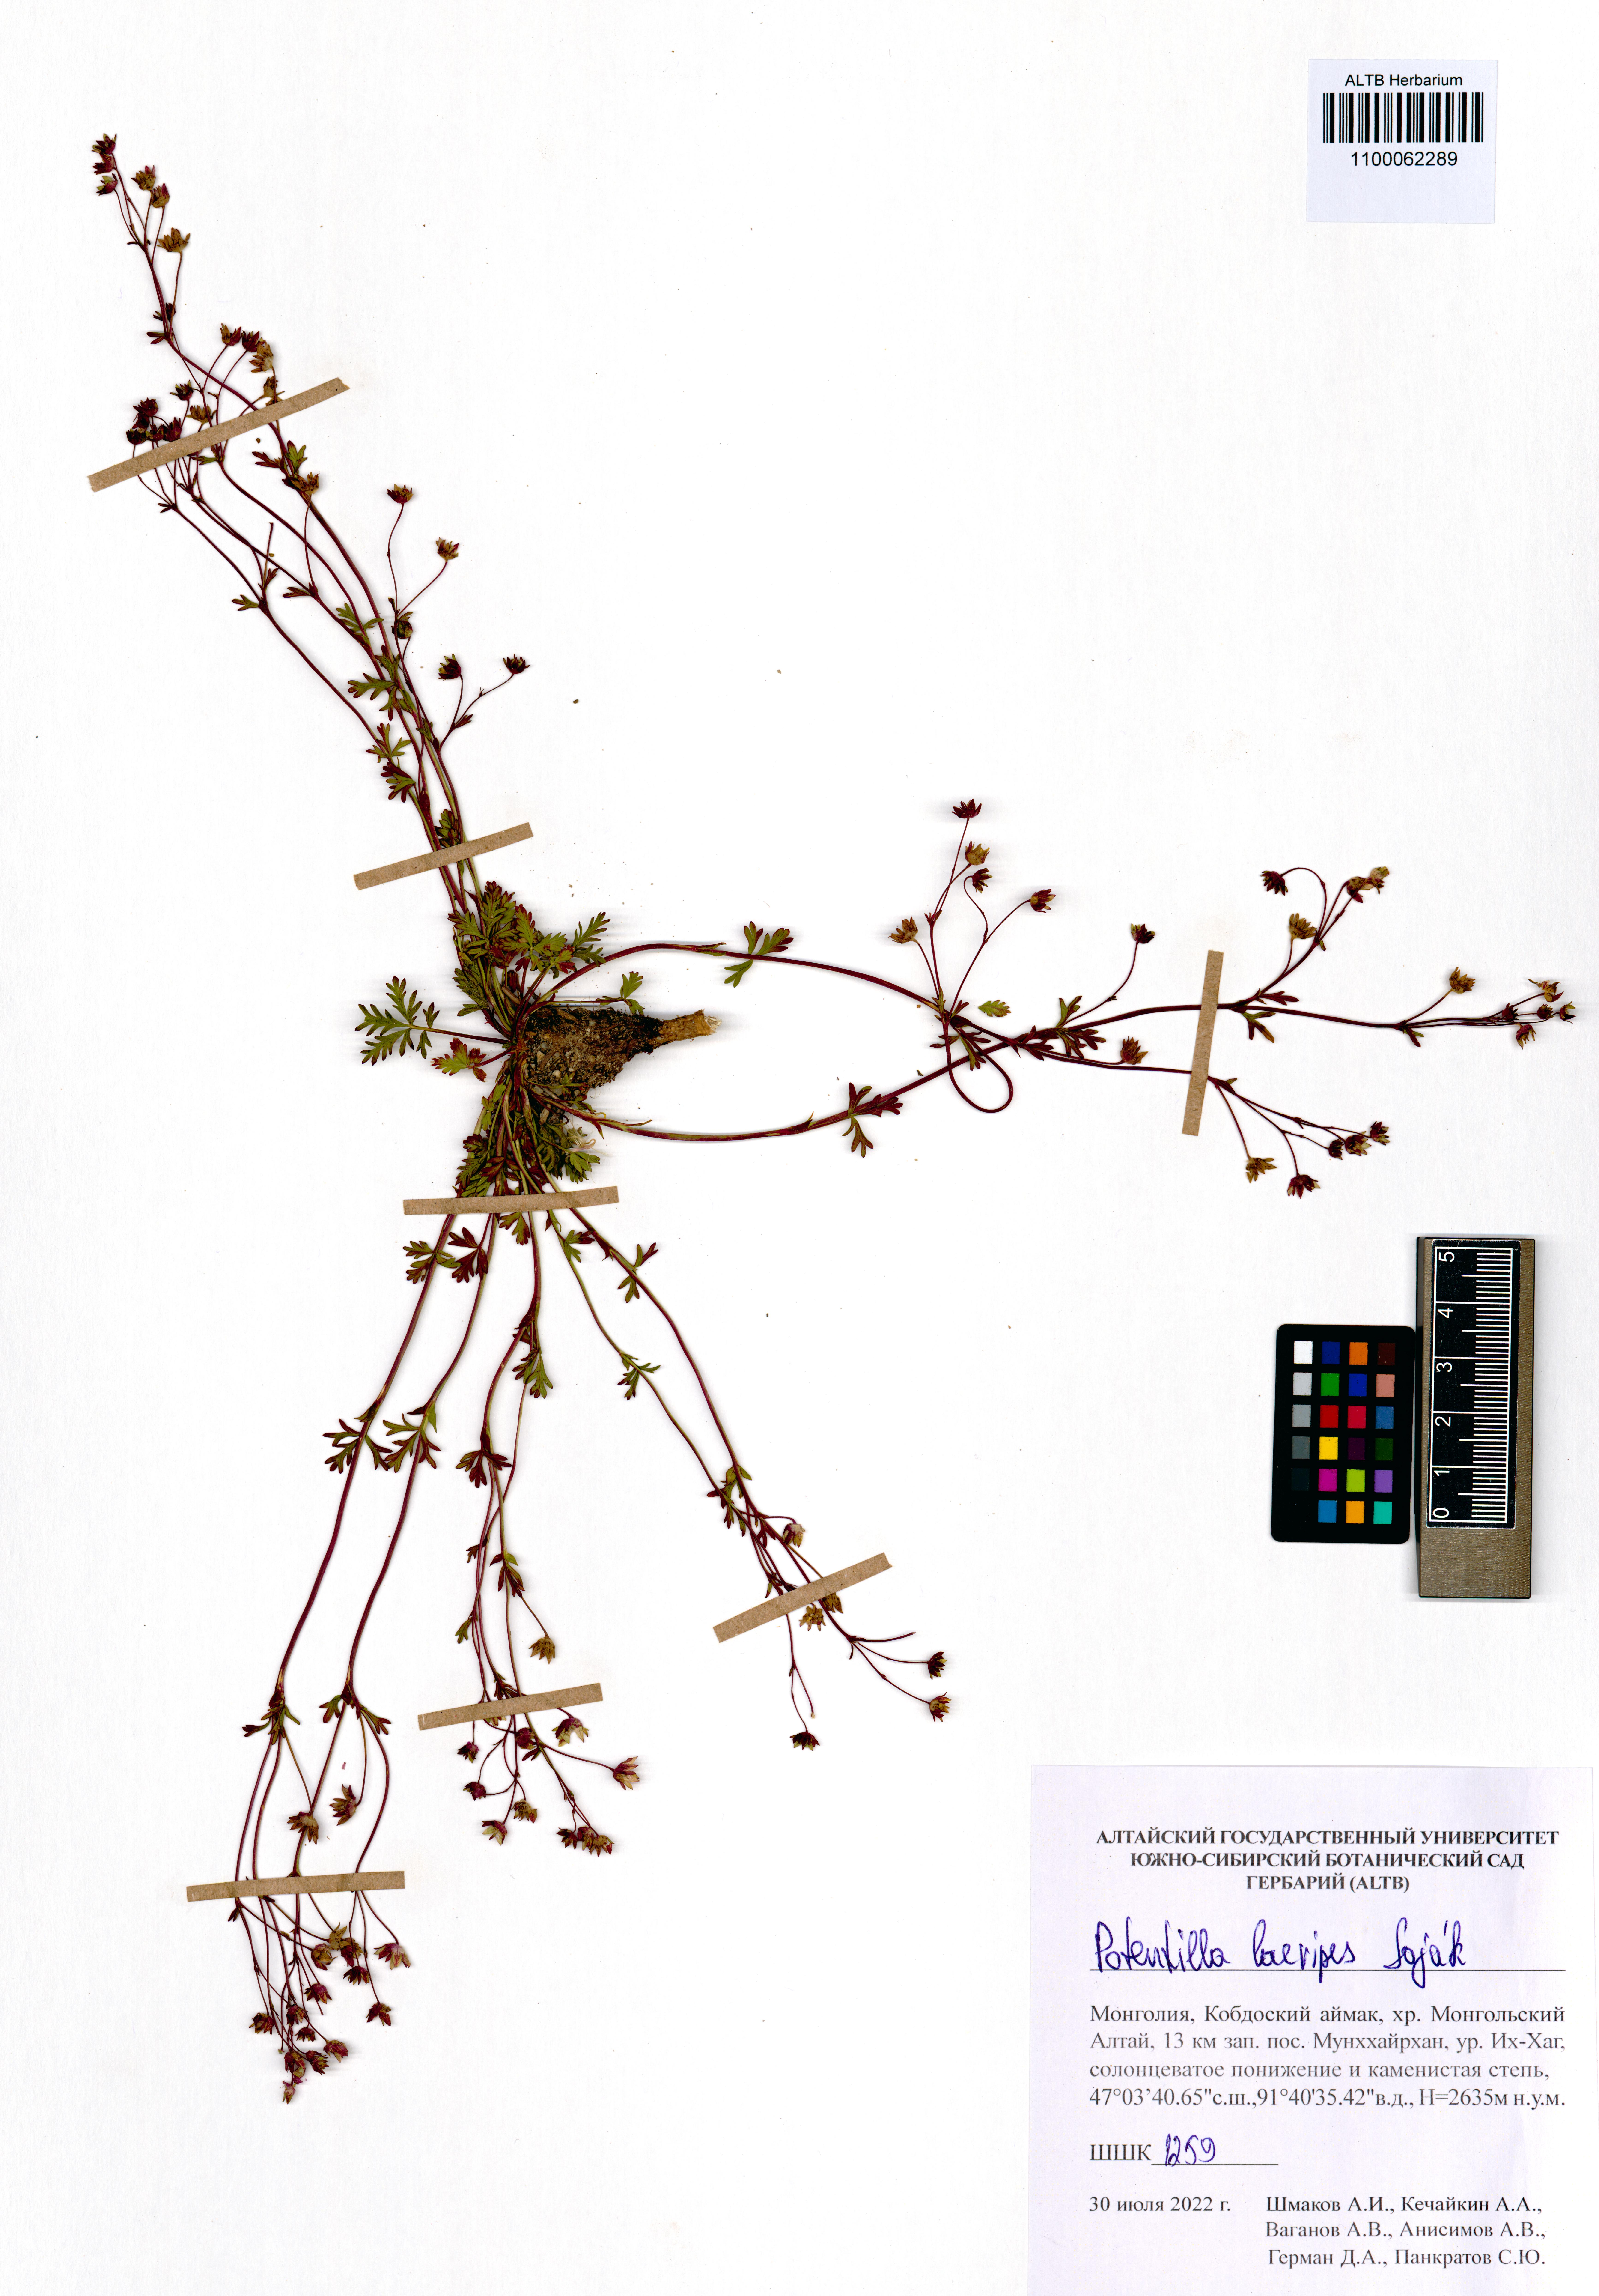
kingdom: Plantae
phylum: Tracheophyta
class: Magnoliopsida
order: Rosales
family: Rosaceae
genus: Potentilla
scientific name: Potentilla laevipes
